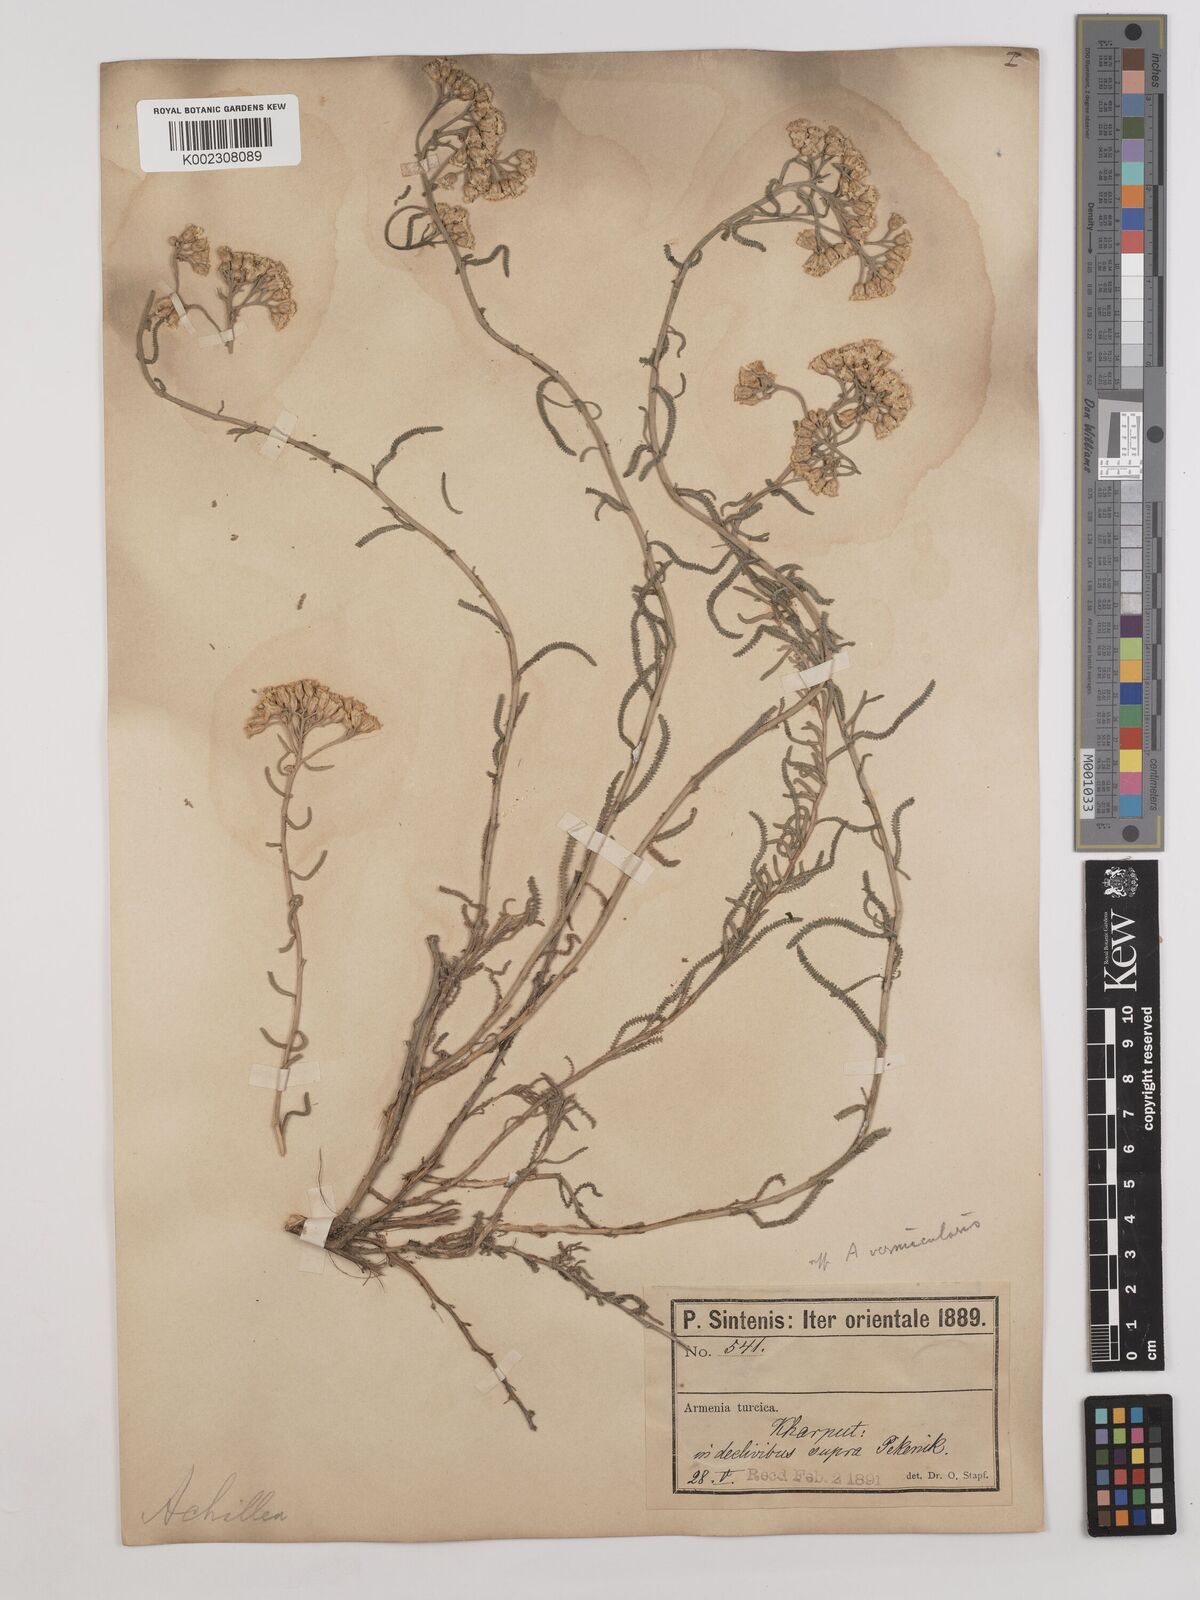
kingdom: Plantae
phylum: Tracheophyta
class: Magnoliopsida
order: Asterales
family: Asteraceae
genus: Achillea
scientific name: Achillea vermicularis
